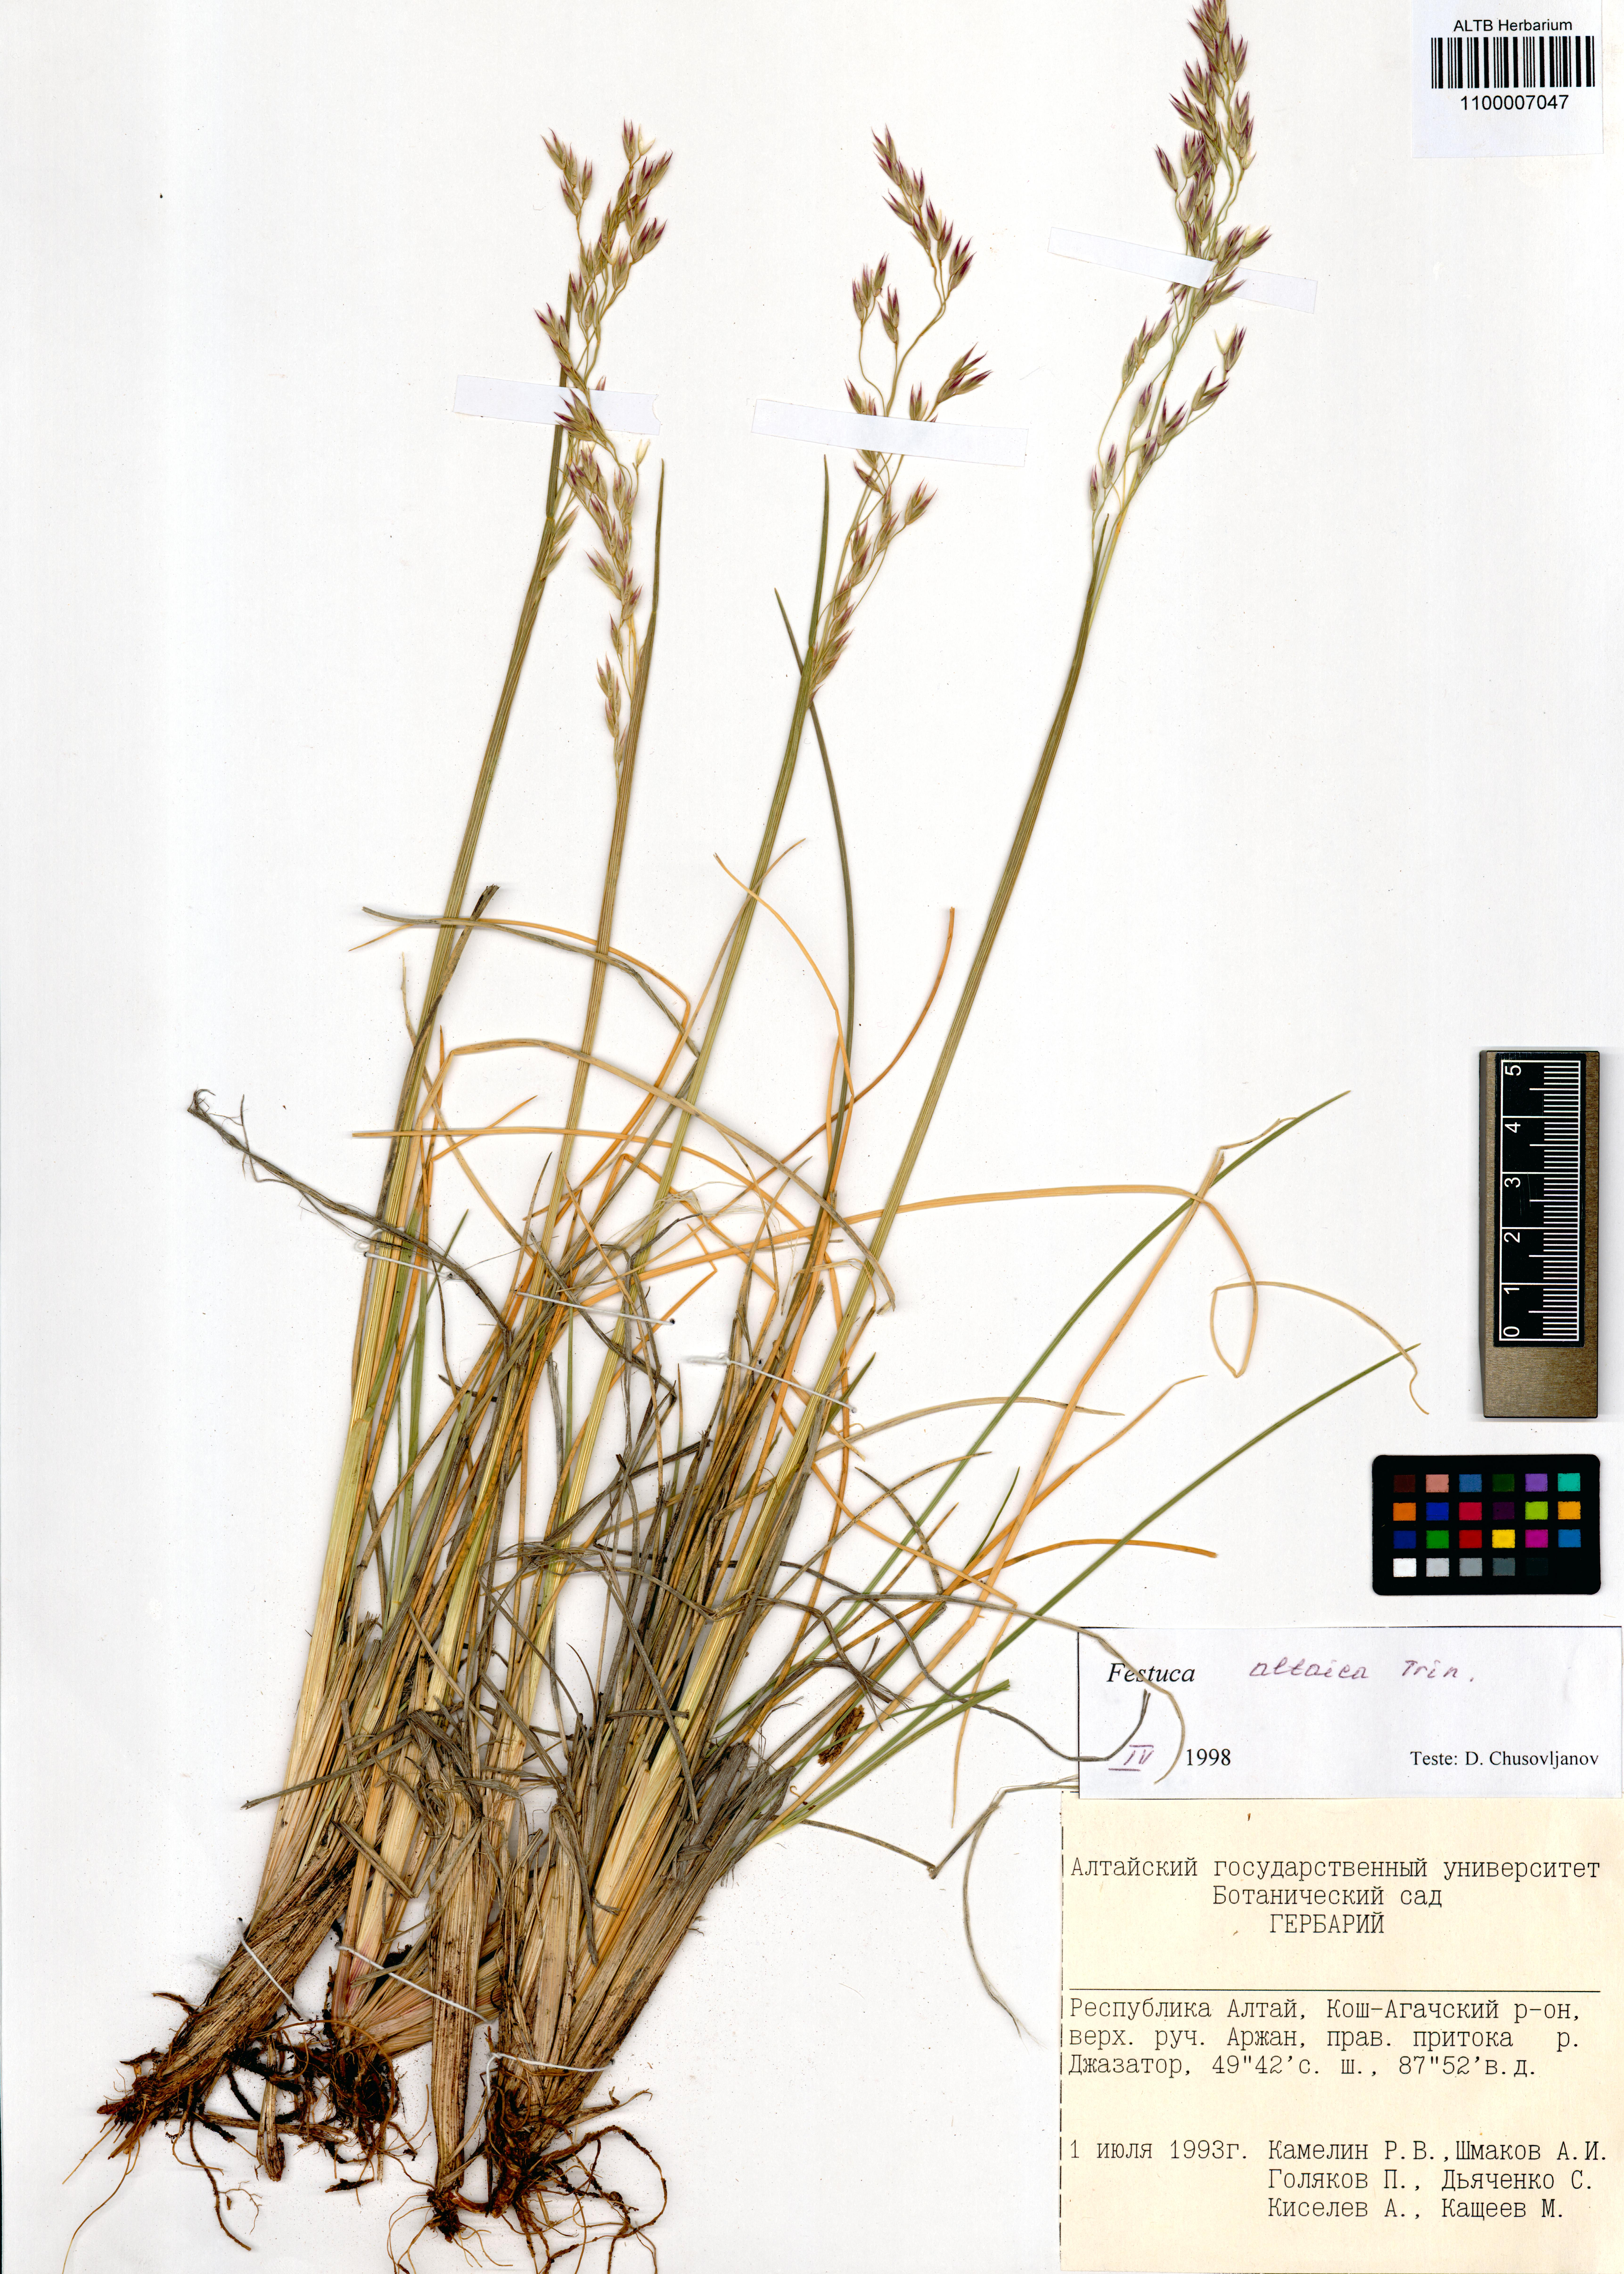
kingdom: Plantae
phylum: Tracheophyta
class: Liliopsida
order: Poales
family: Poaceae
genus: Festuca
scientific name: Festuca altaica
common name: Northern rough fescue
